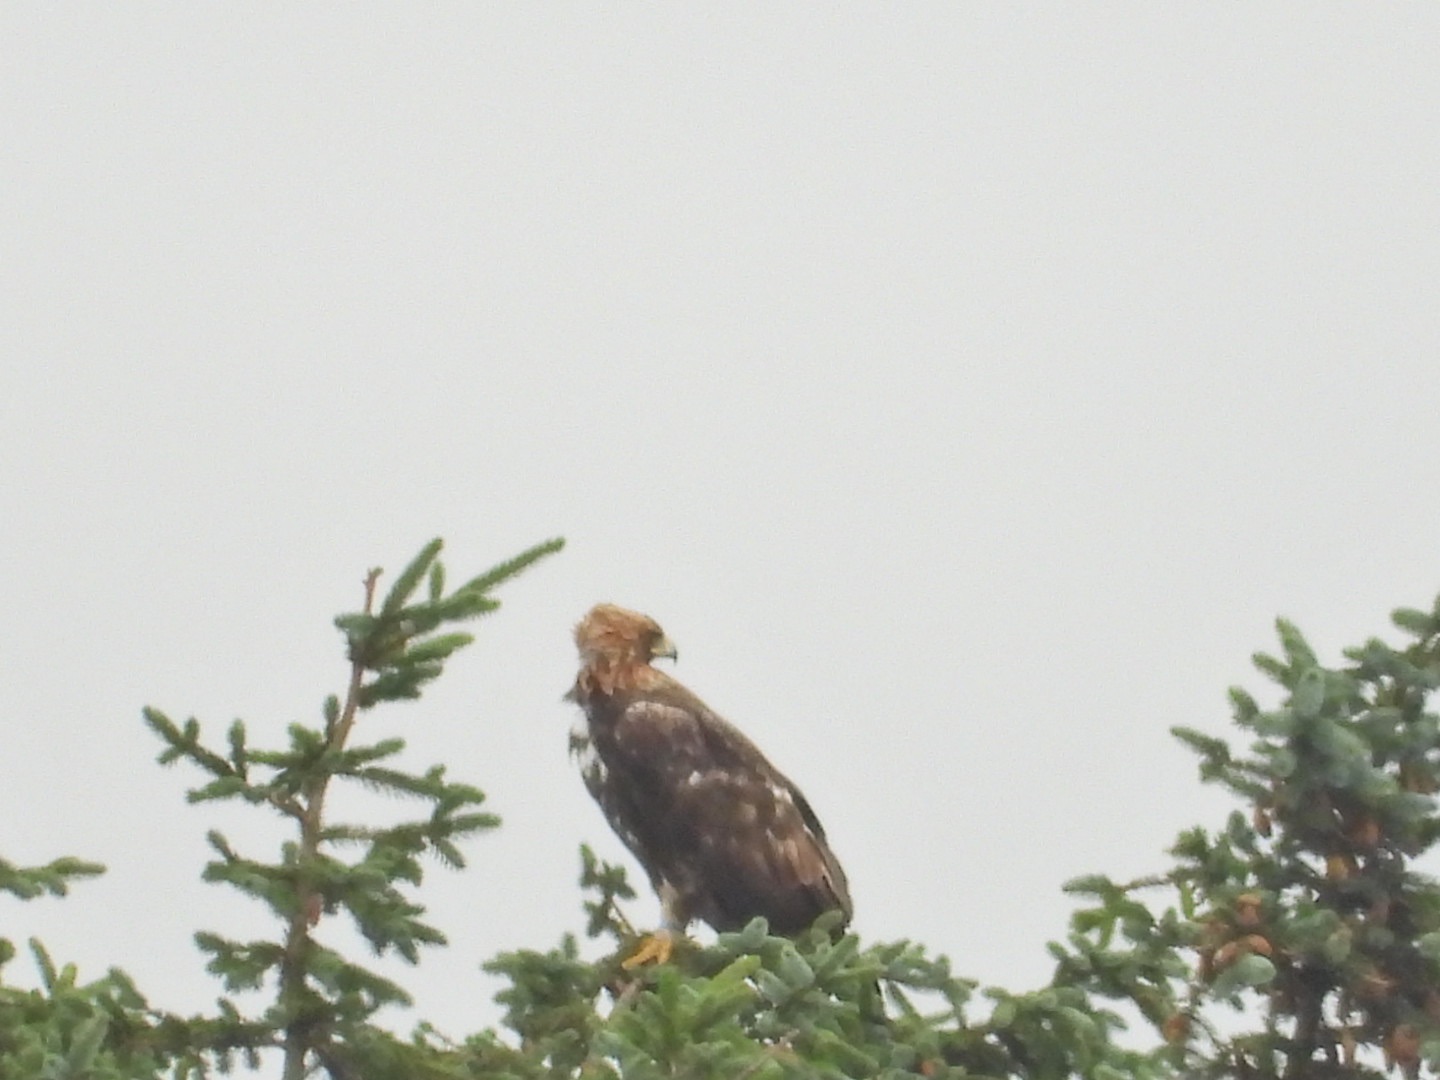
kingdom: Animalia
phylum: Chordata
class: Aves
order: Accipitriformes
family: Accipitridae
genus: Aquila
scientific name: Aquila chrysaetos
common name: Kongeørn
